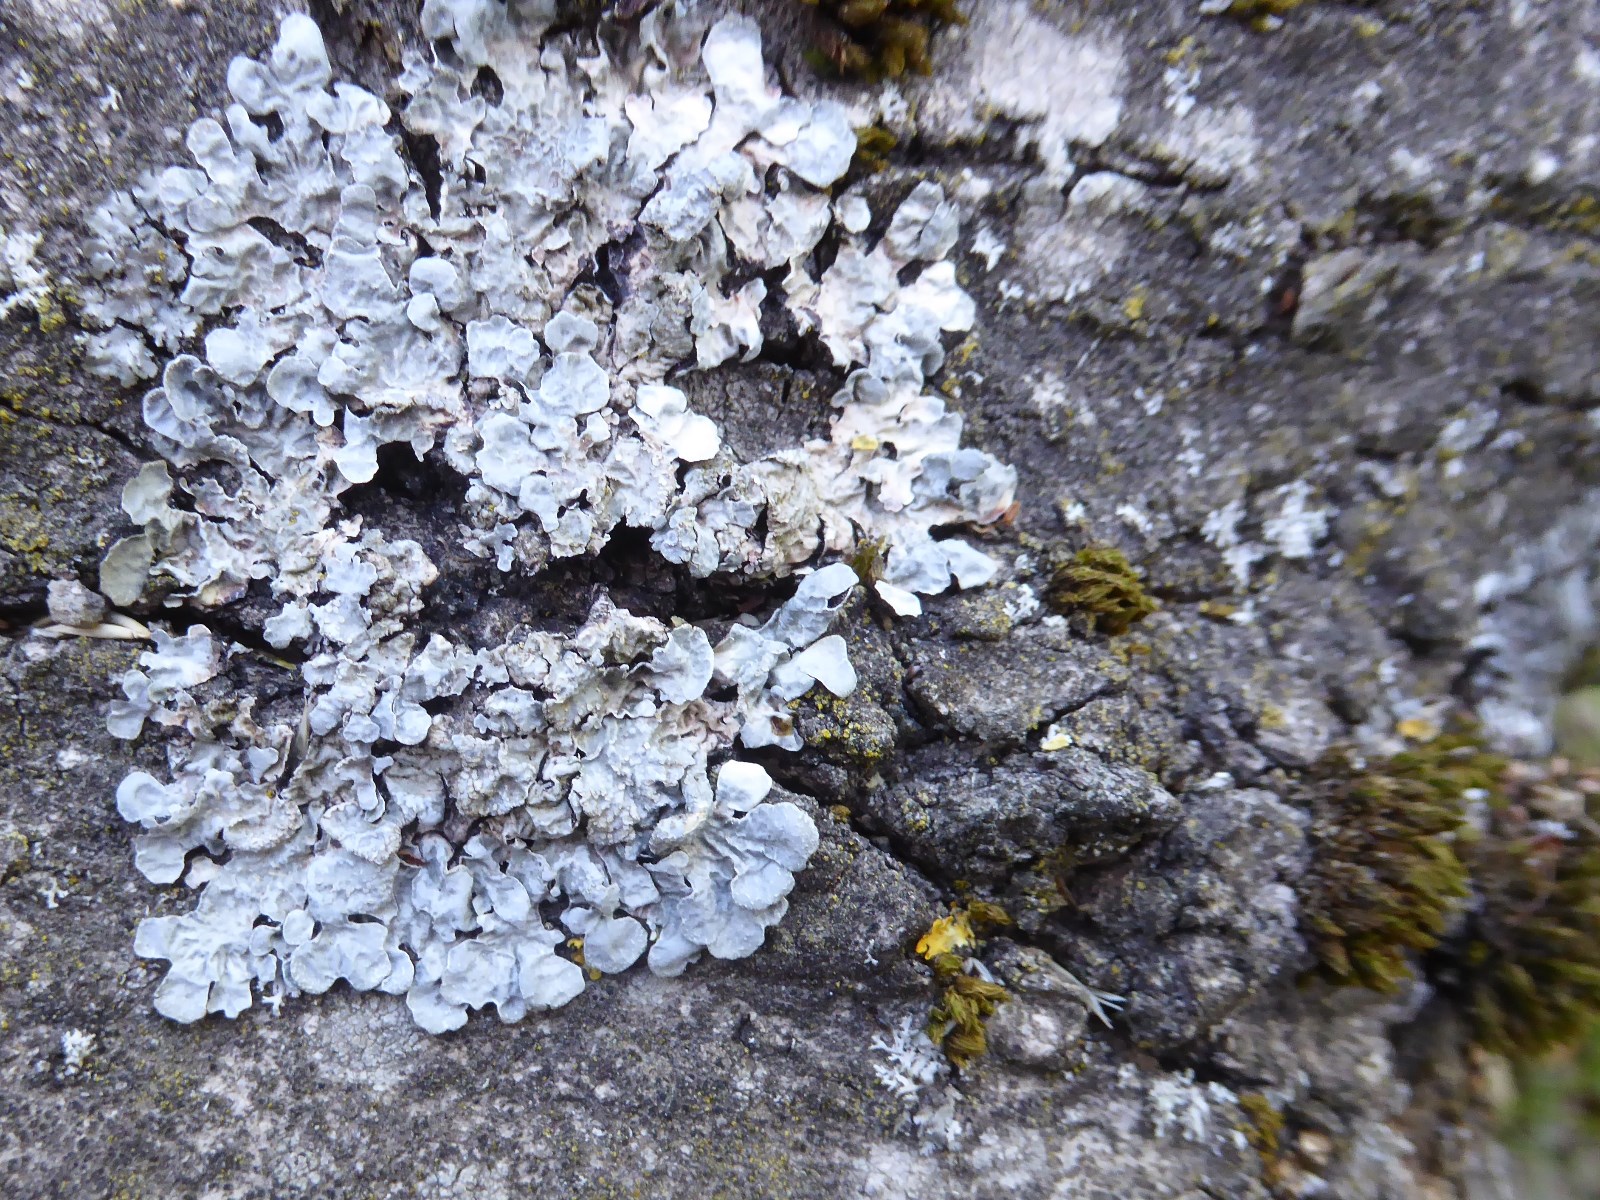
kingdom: Fungi
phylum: Ascomycota
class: Lecanoromycetes
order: Lecanorales
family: Parmeliaceae
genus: Parmelia
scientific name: Parmelia sulcata
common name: rynket skållav
